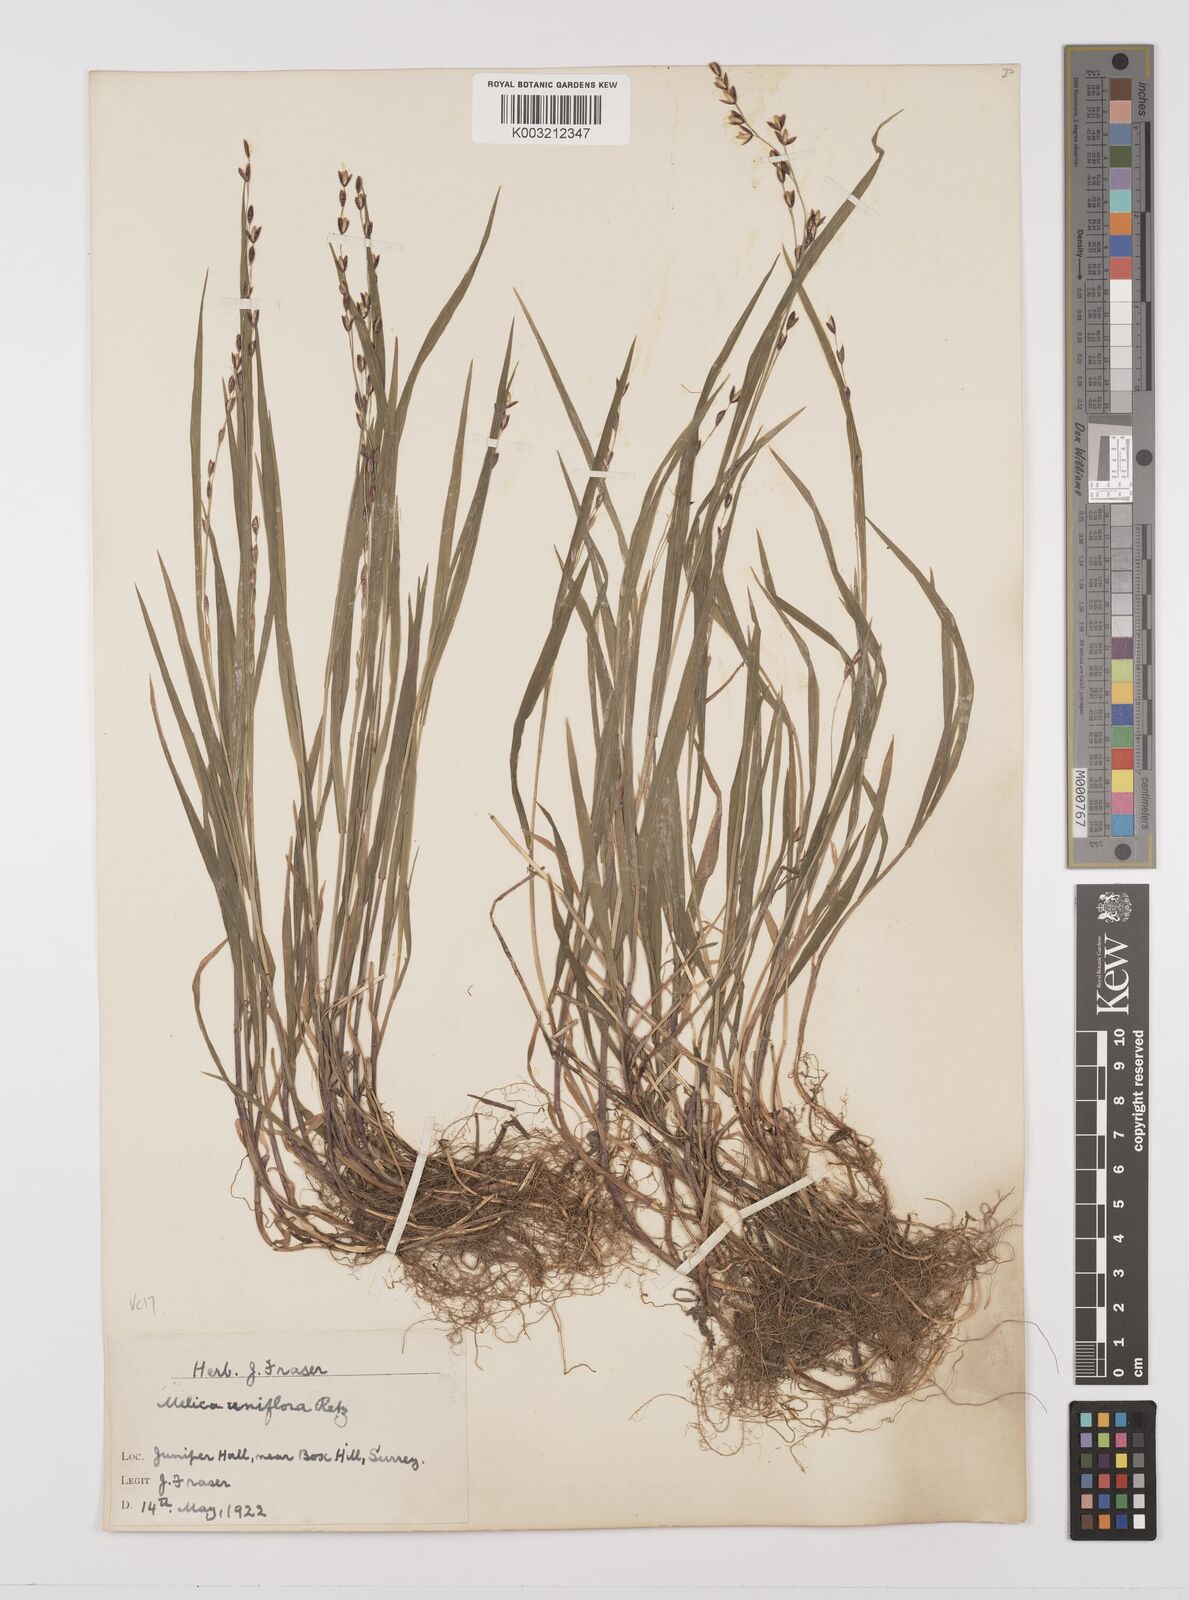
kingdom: Plantae
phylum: Tracheophyta
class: Liliopsida
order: Poales
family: Poaceae
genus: Melica
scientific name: Melica uniflora
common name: Wood melick
